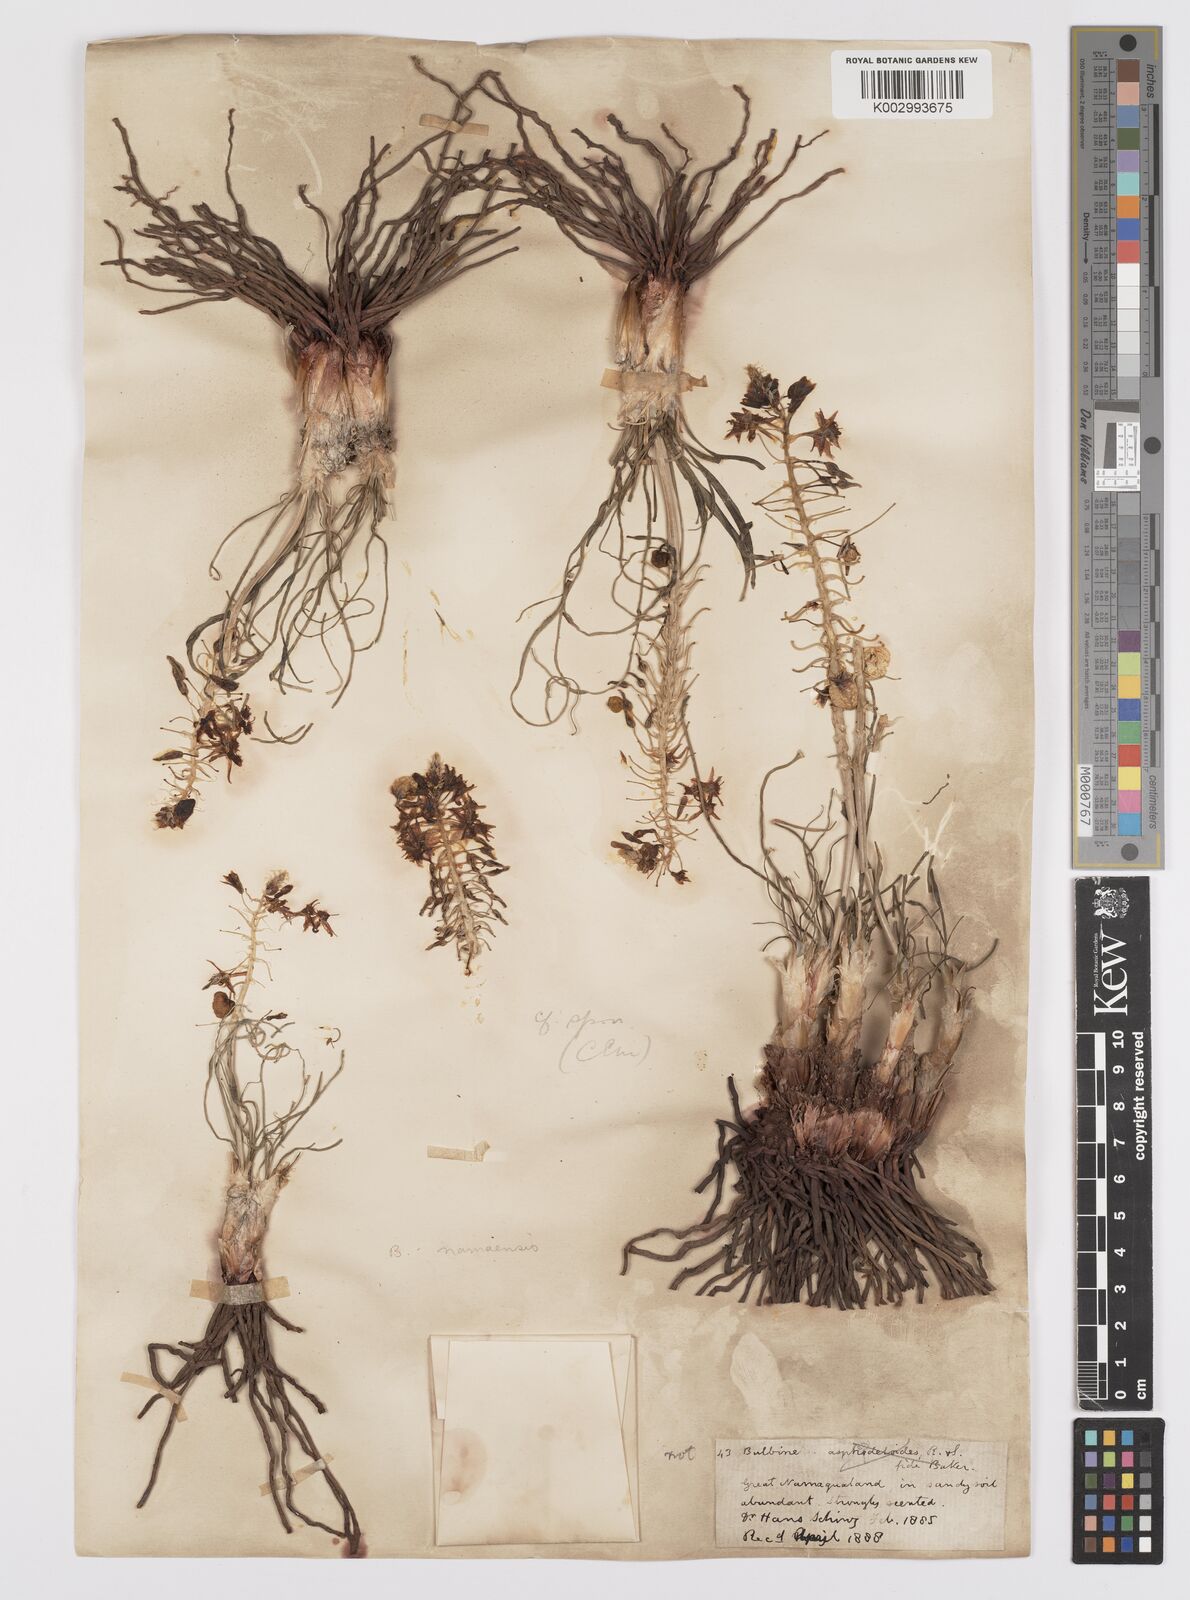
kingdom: Plantae
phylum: Tracheophyta
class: Liliopsida
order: Asparagales
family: Asphodelaceae
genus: Bulbine
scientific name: Bulbine namaensis
